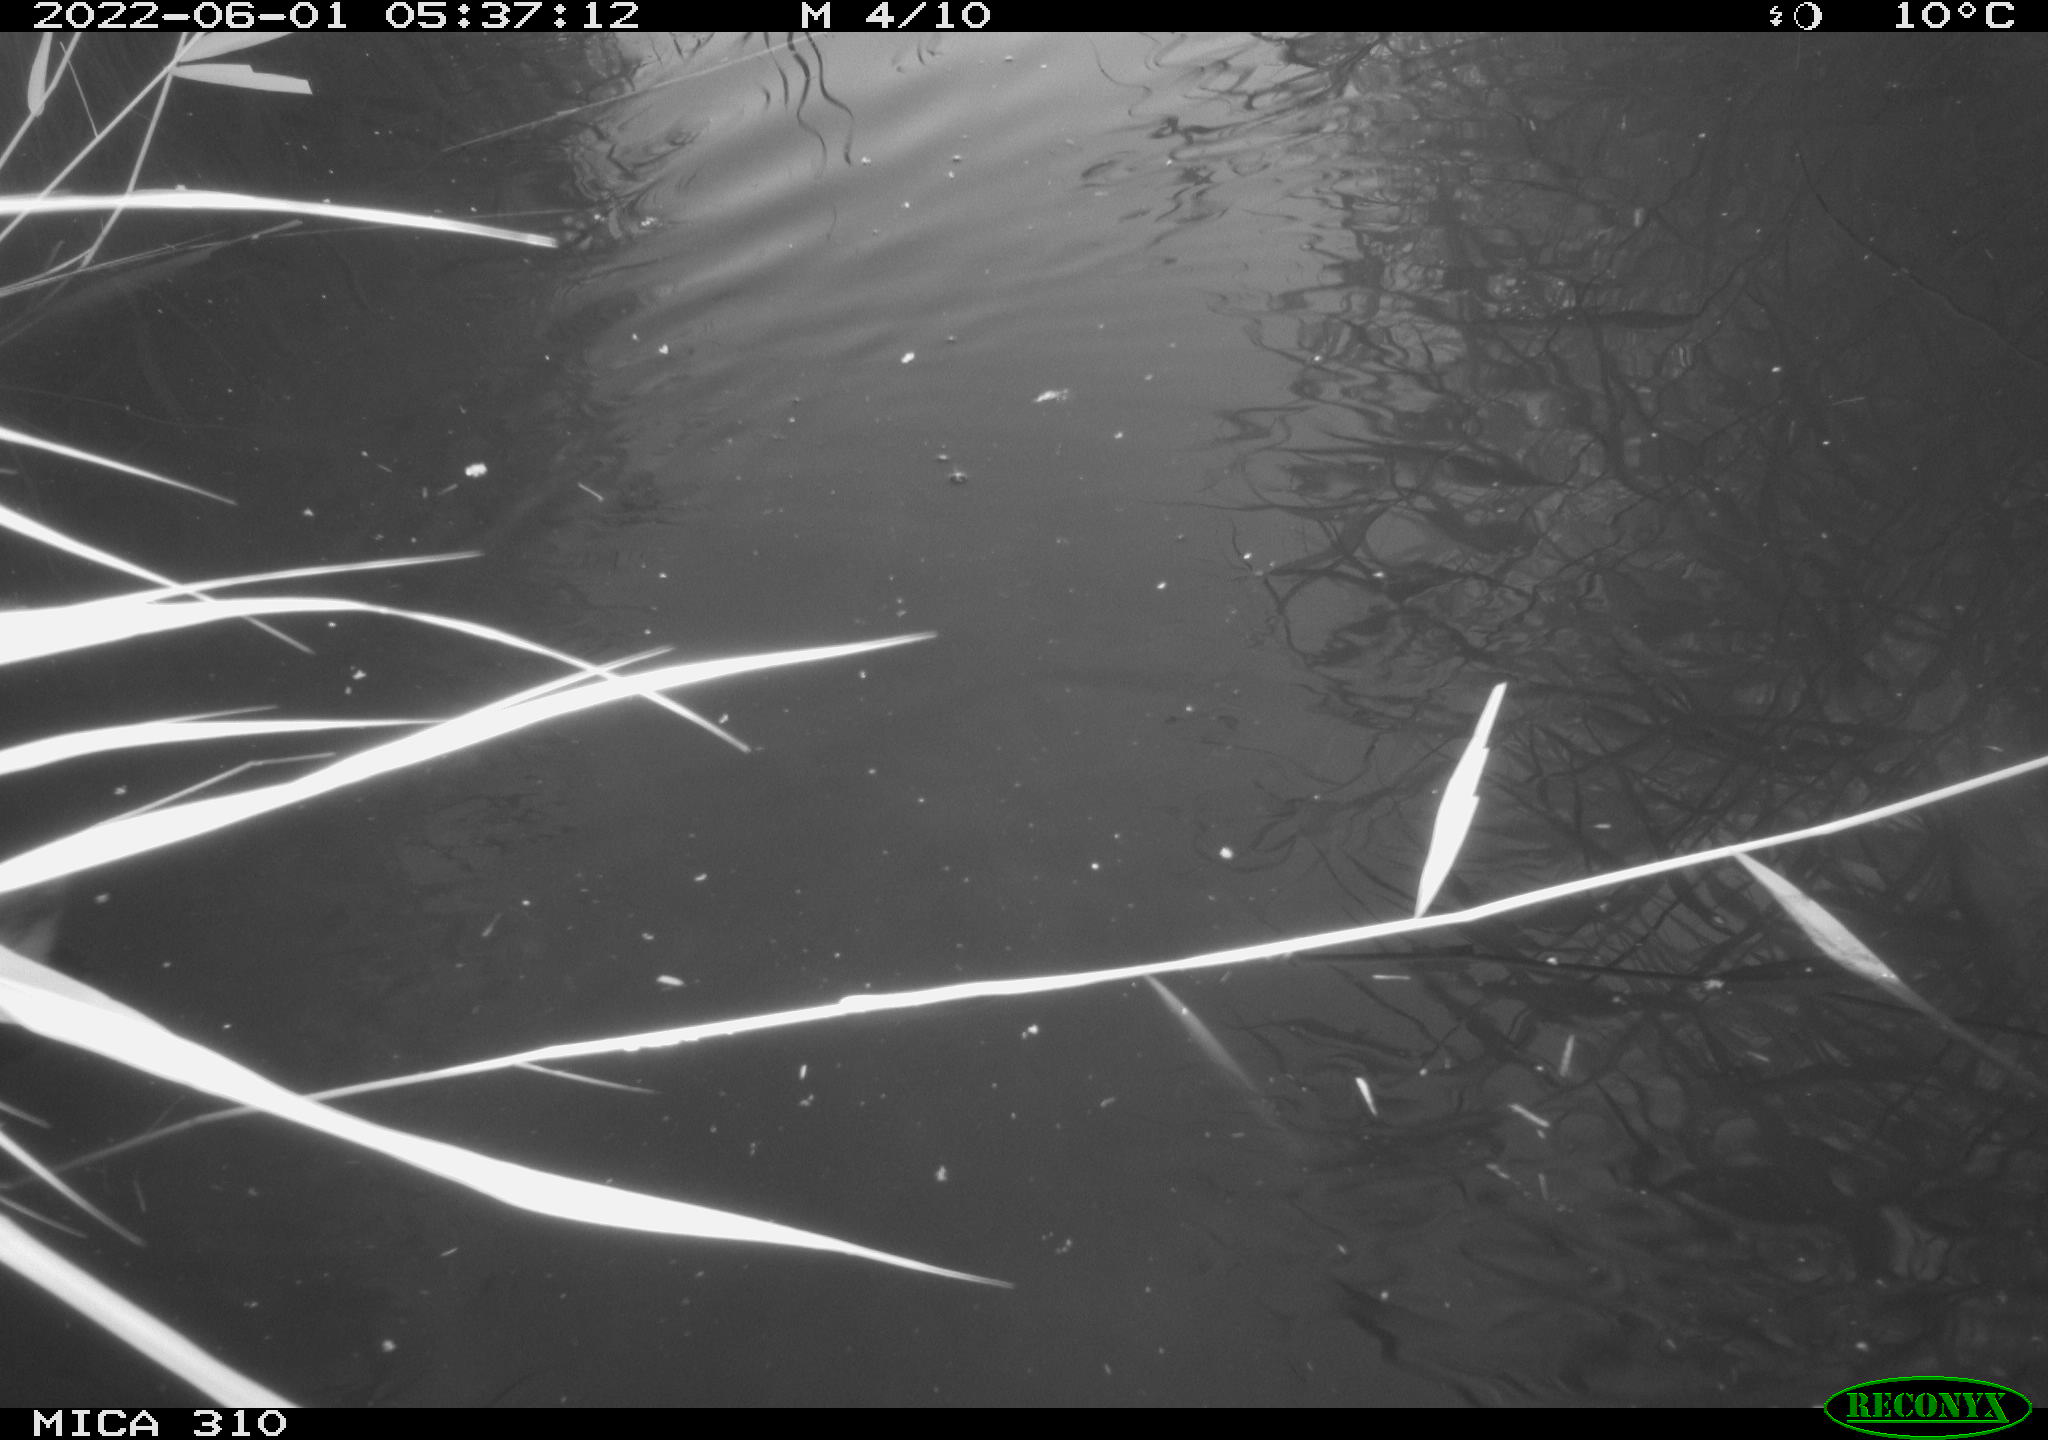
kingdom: Animalia
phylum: Chordata
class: Aves
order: Gruiformes
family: Rallidae
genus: Fulica
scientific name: Fulica atra
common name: Eurasian coot
